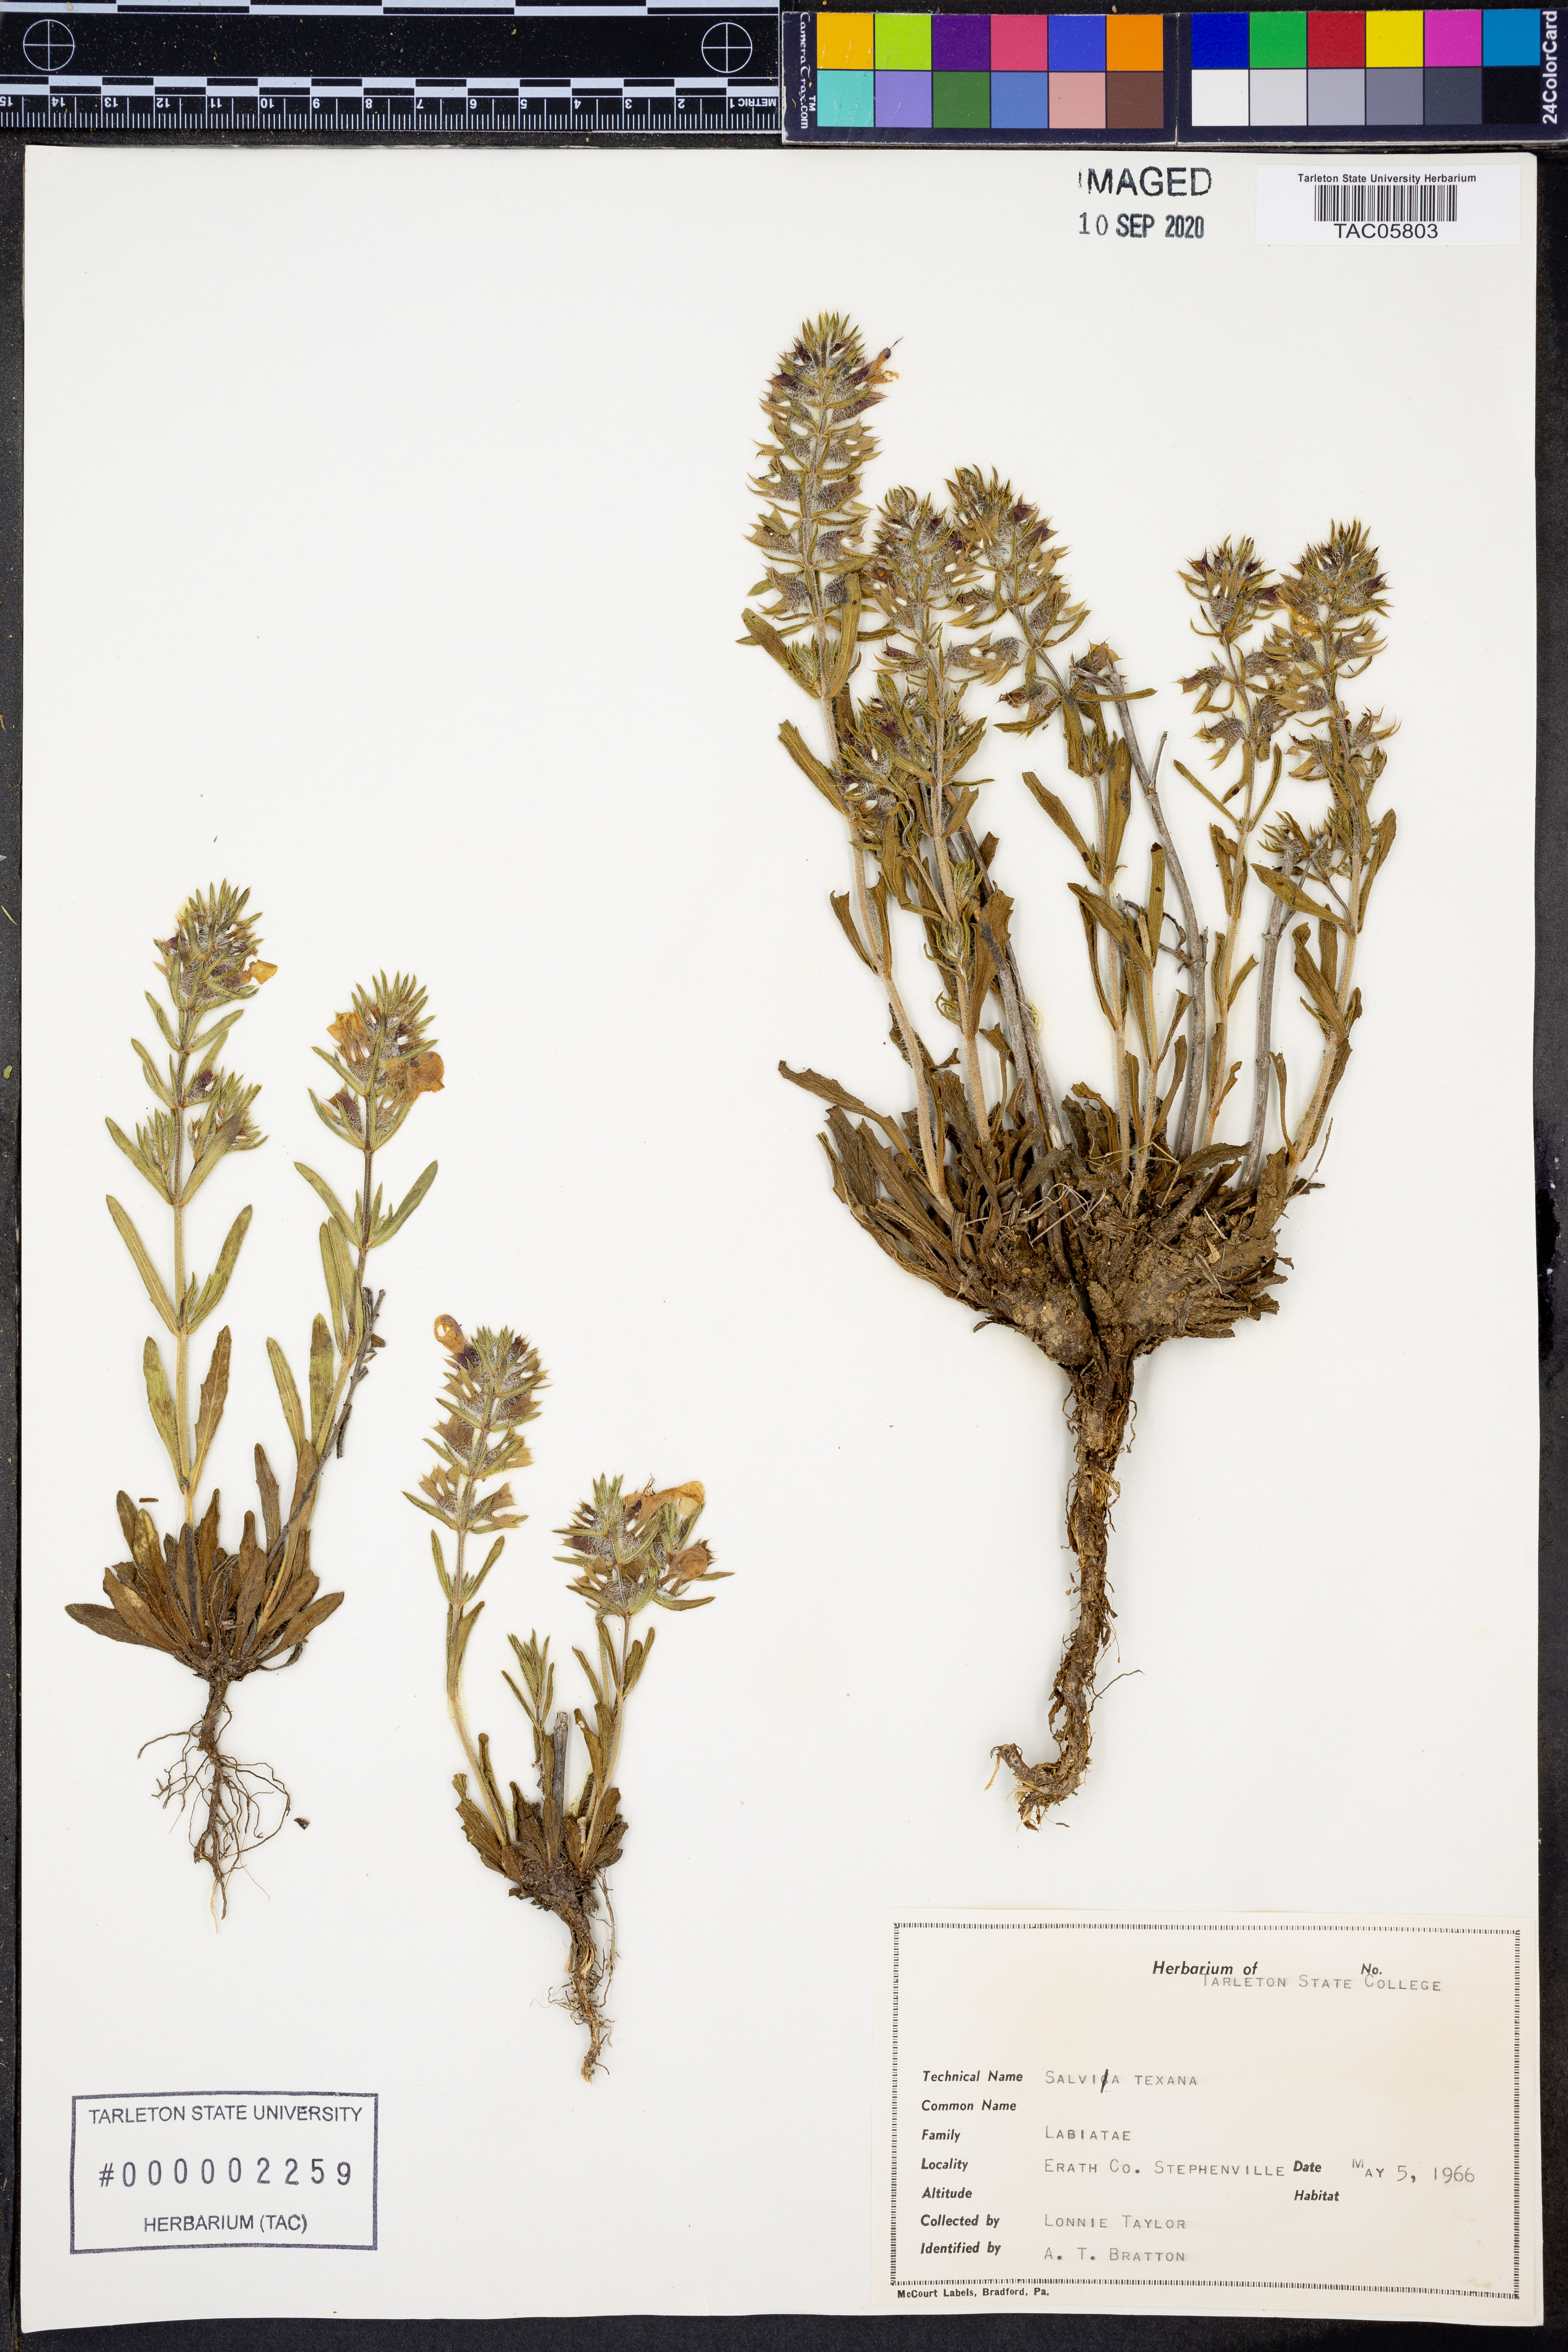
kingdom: Plantae
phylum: Tracheophyta
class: Magnoliopsida
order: Lamiales
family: Lamiaceae
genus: Salvia
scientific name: Salvia texana
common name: Texas sage
